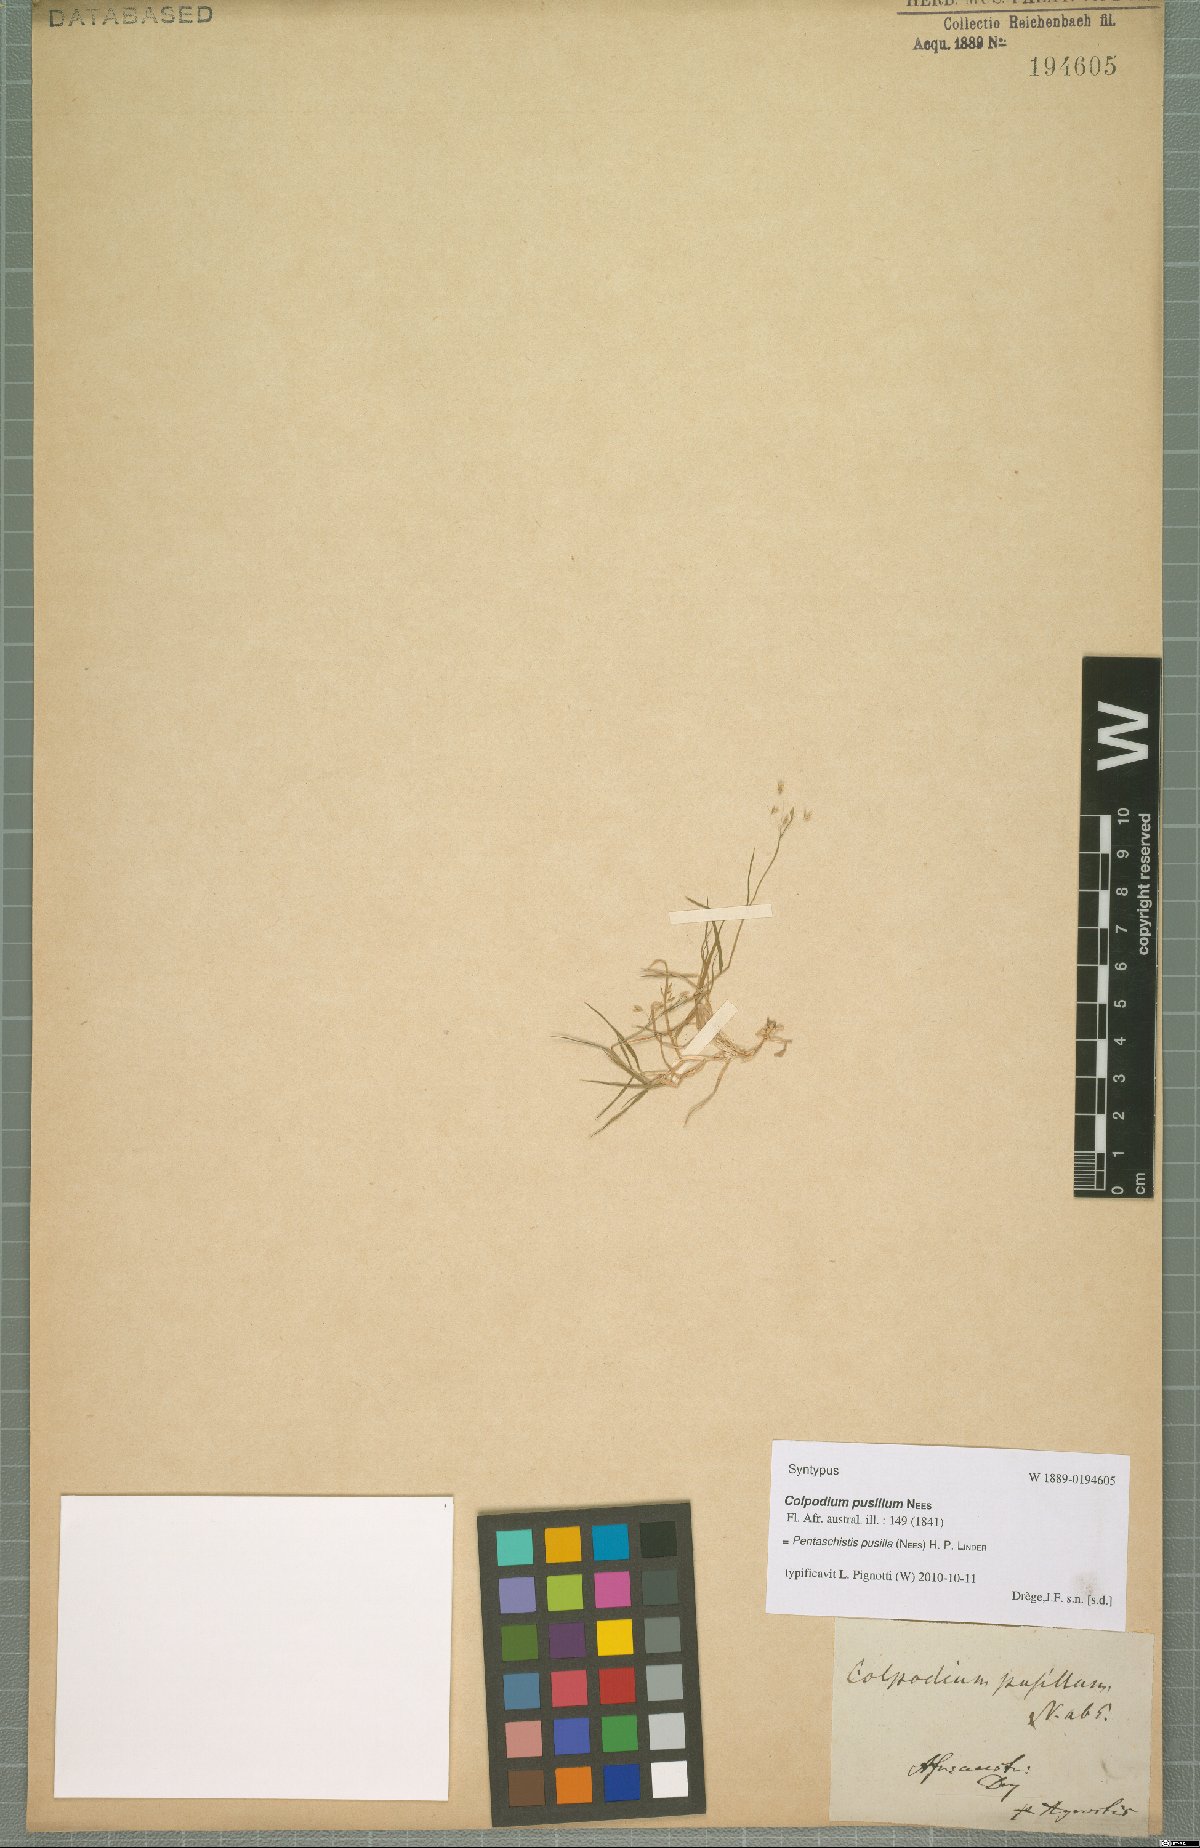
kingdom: Plantae
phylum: Tracheophyta
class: Liliopsida
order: Poales
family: Poaceae
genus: Pentameris
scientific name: Pentameris pusilla
